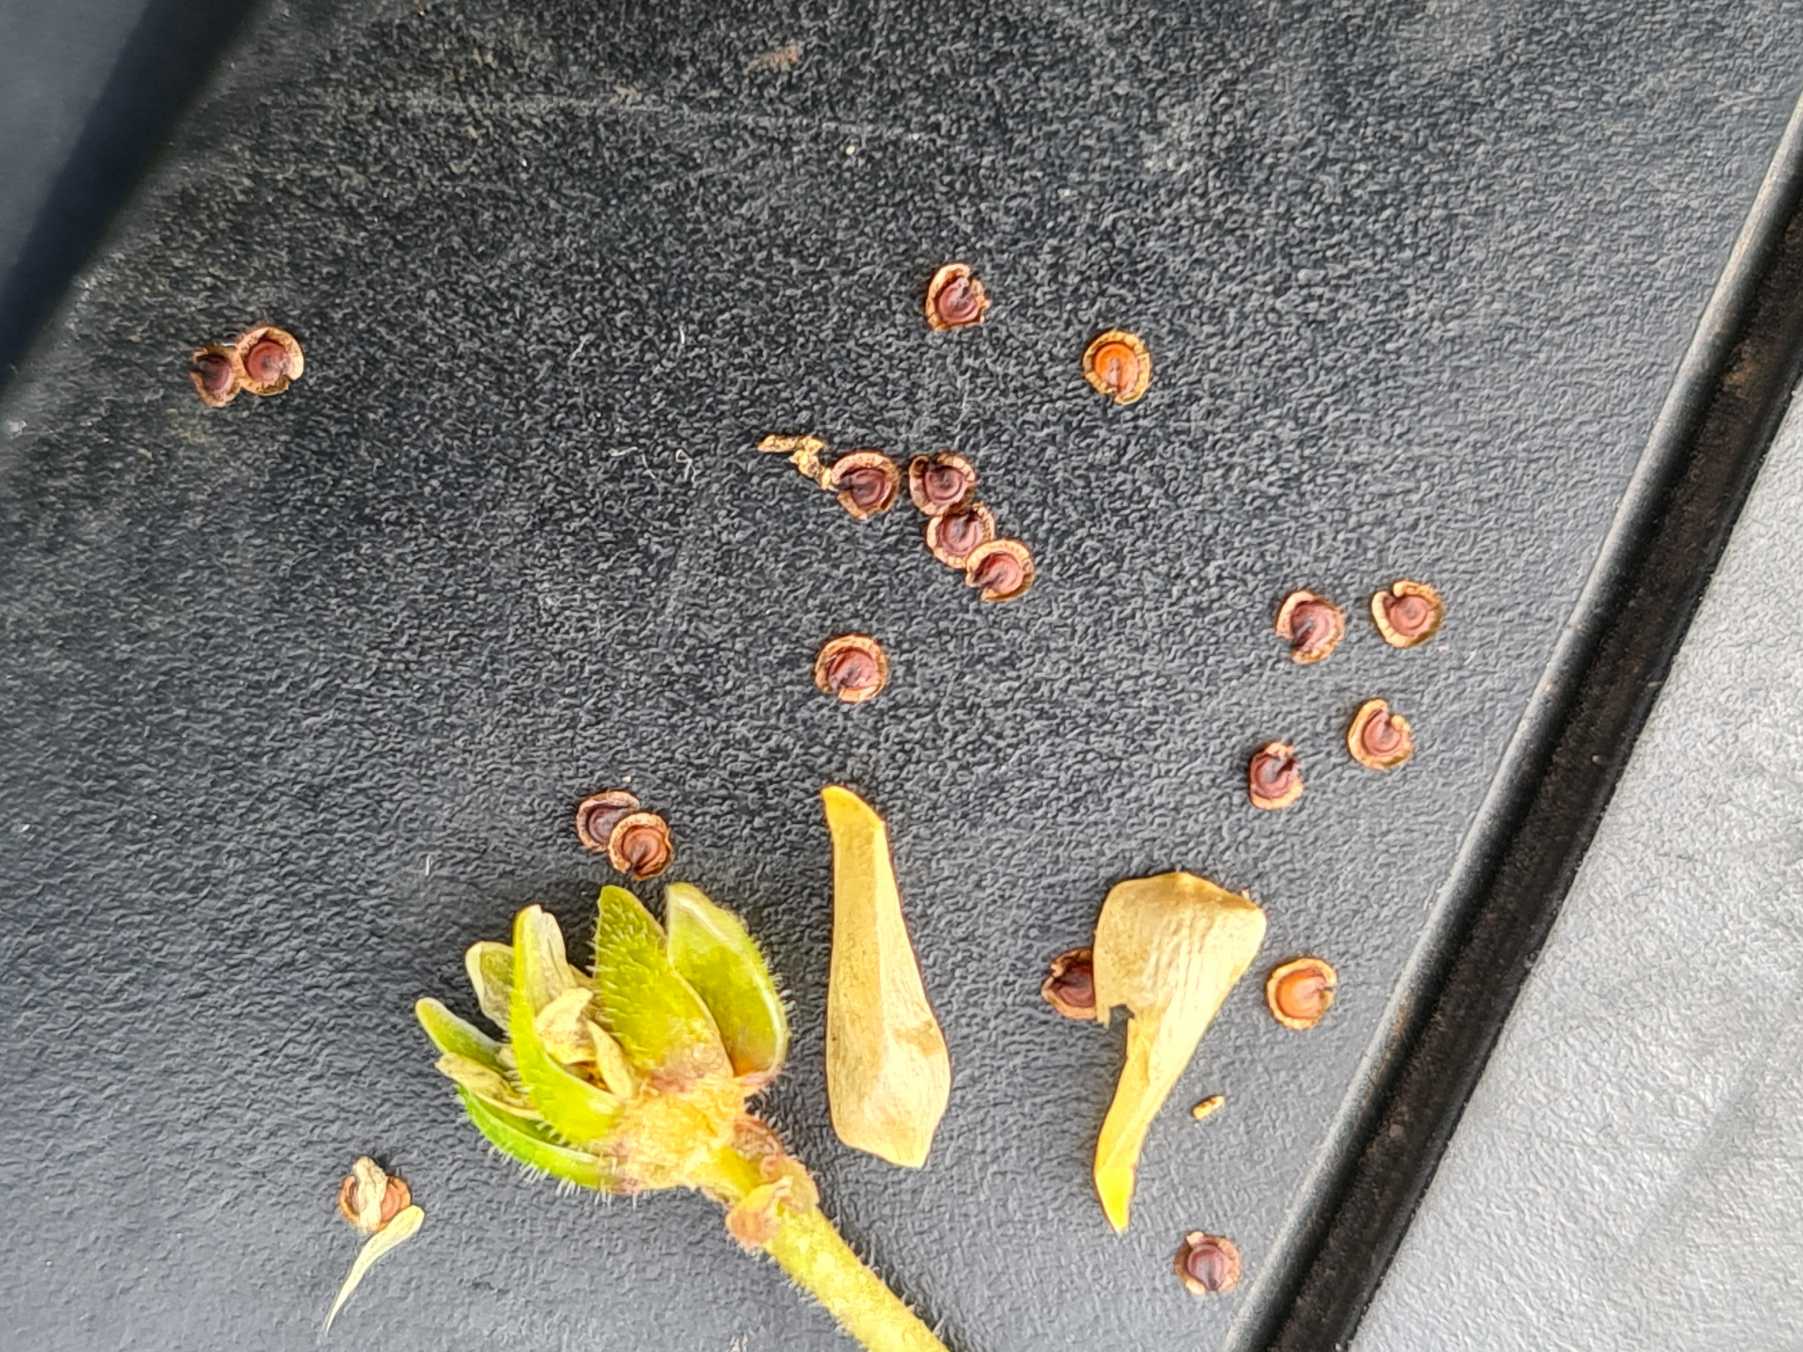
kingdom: Plantae
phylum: Tracheophyta
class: Magnoliopsida
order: Caryophyllales
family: Caryophyllaceae
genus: Spergularia
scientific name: Spergularia media
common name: Vingefrøet hindeknæ
